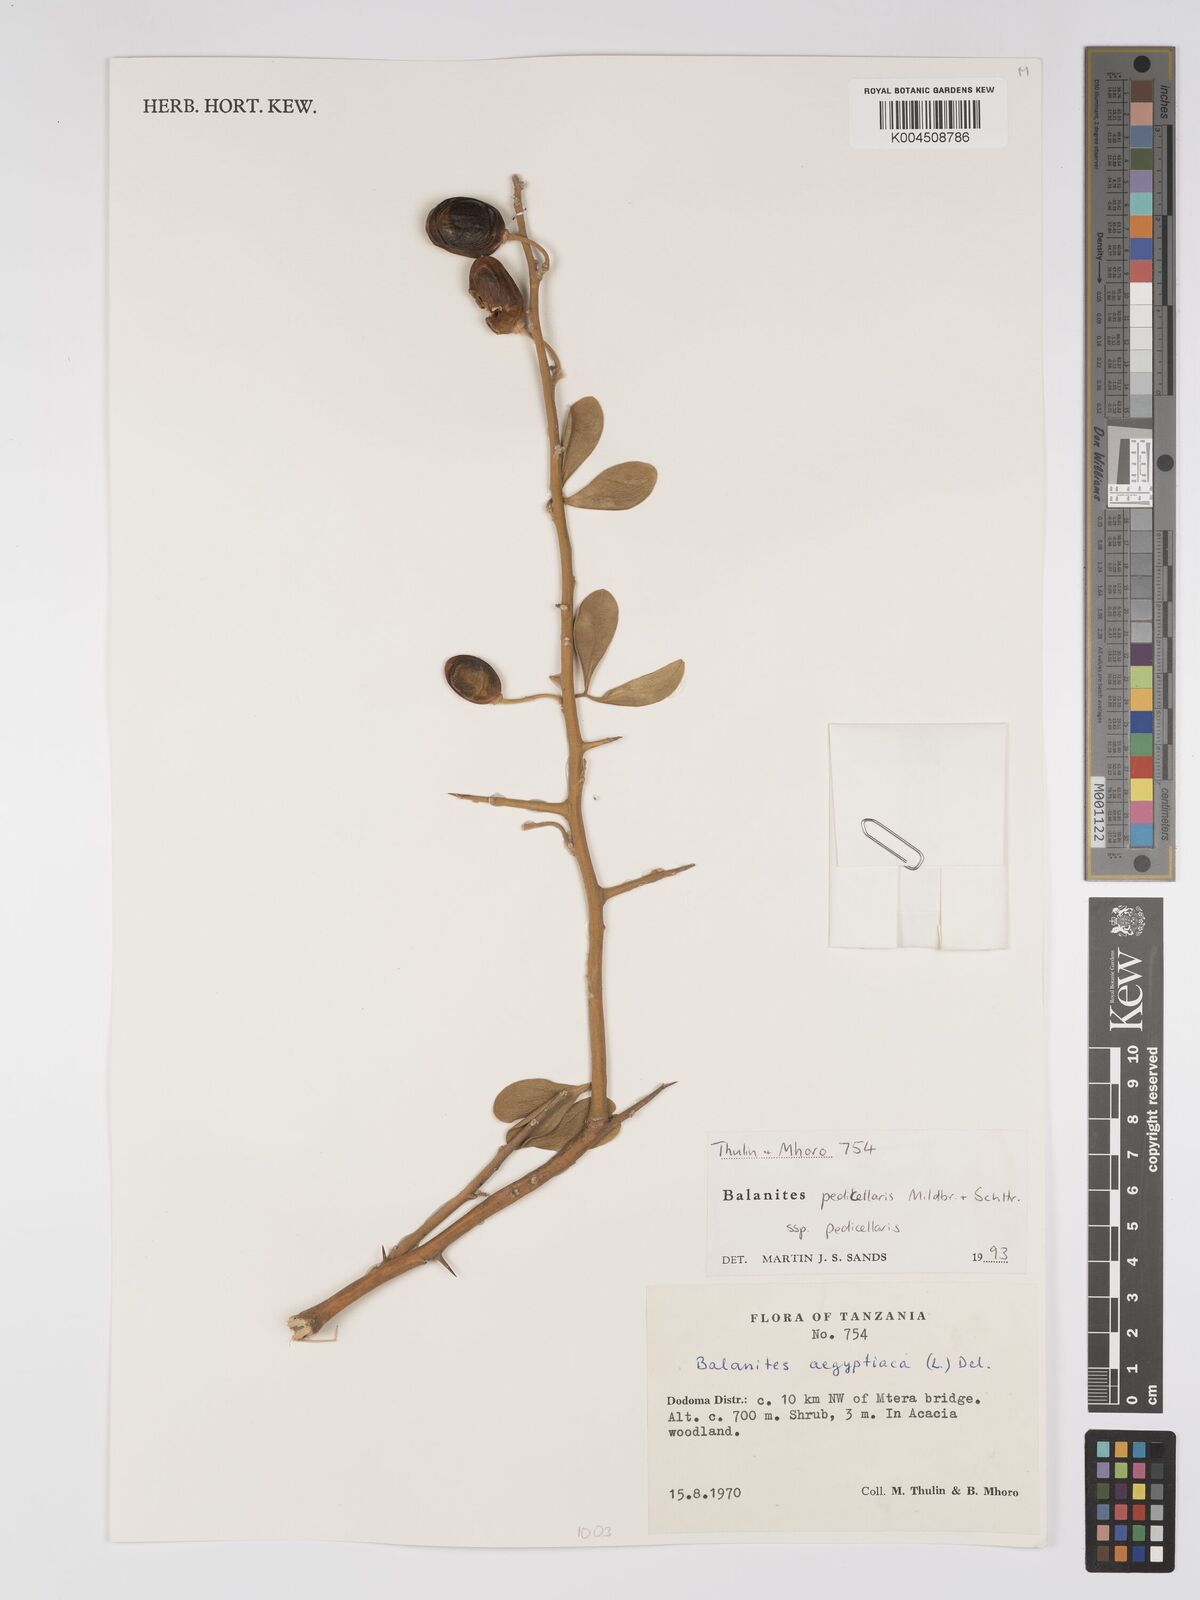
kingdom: Plantae
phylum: Tracheophyta
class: Magnoliopsida
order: Zygophyllales
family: Zygophyllaceae
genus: Balanites
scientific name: Balanites pedicellaris
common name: Small green-thorn
